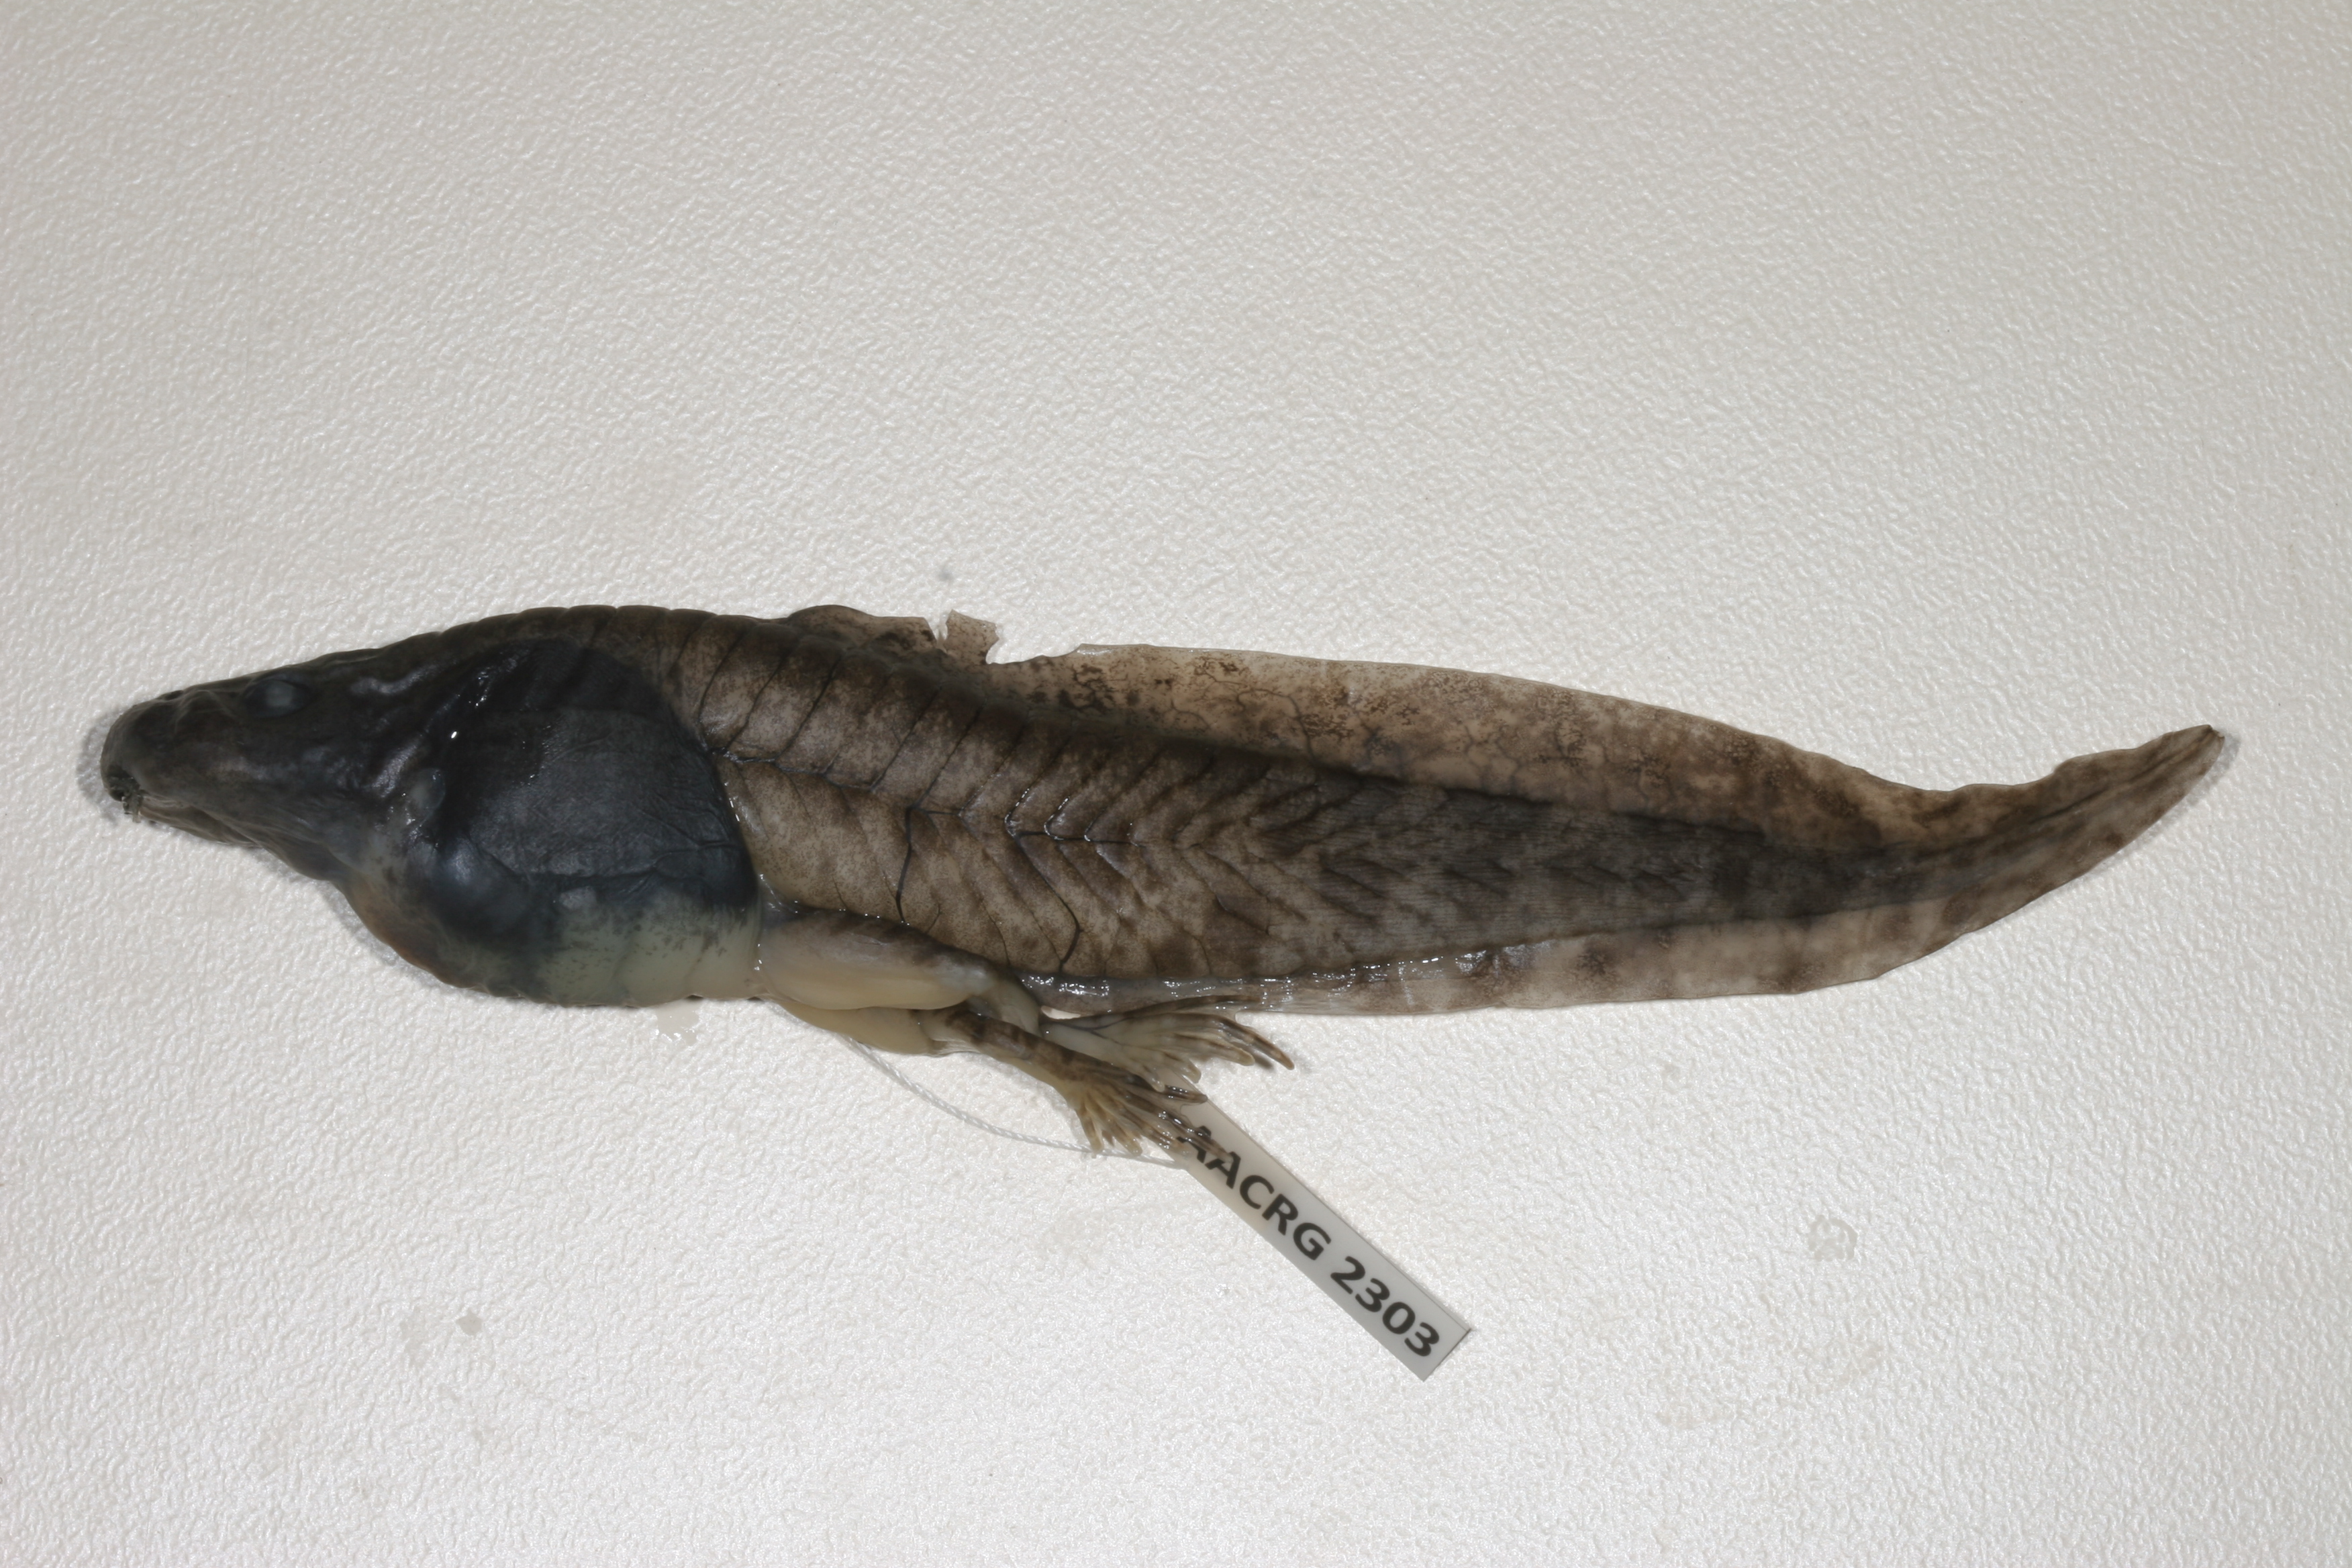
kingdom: Animalia
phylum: Chordata
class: Amphibia
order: Anura
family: Pyxicephalidae
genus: Amietia
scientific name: Amietia poyntoni
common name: Poynton's river frog
